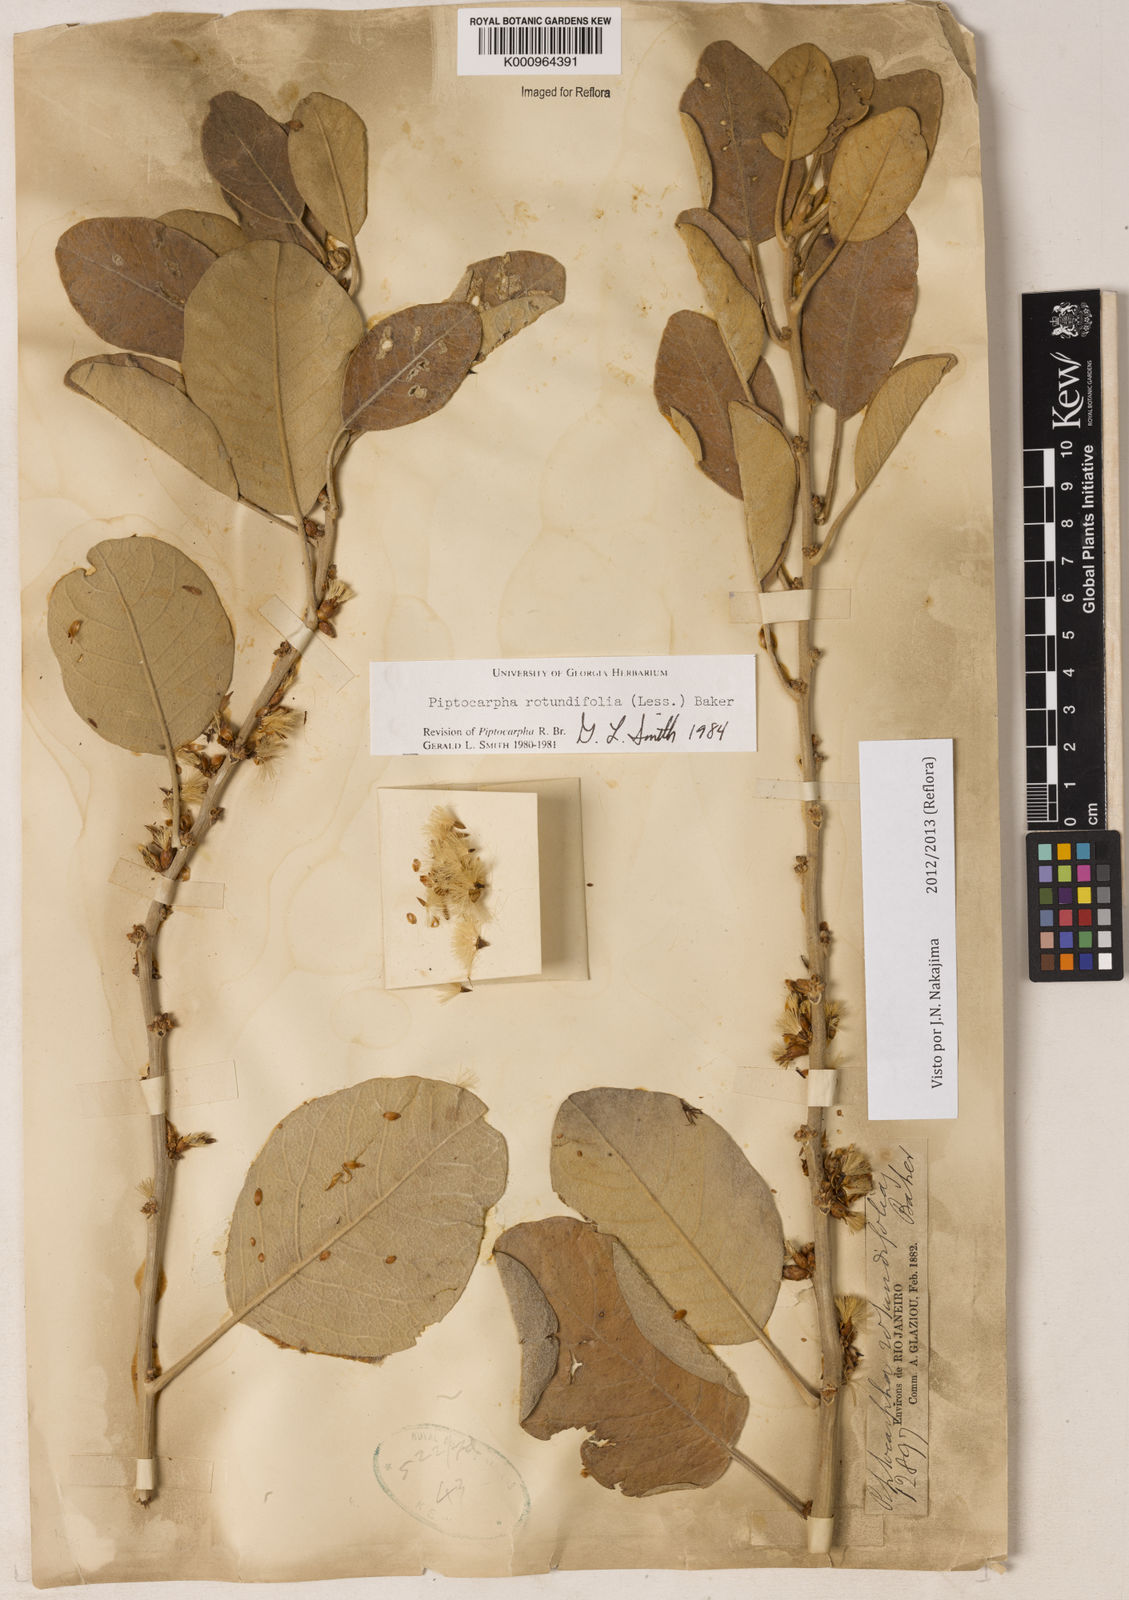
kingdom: Plantae
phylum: Tracheophyta
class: Magnoliopsida
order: Asterales
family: Asteraceae
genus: Piptocarpha
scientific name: Piptocarpha rotundifolia
